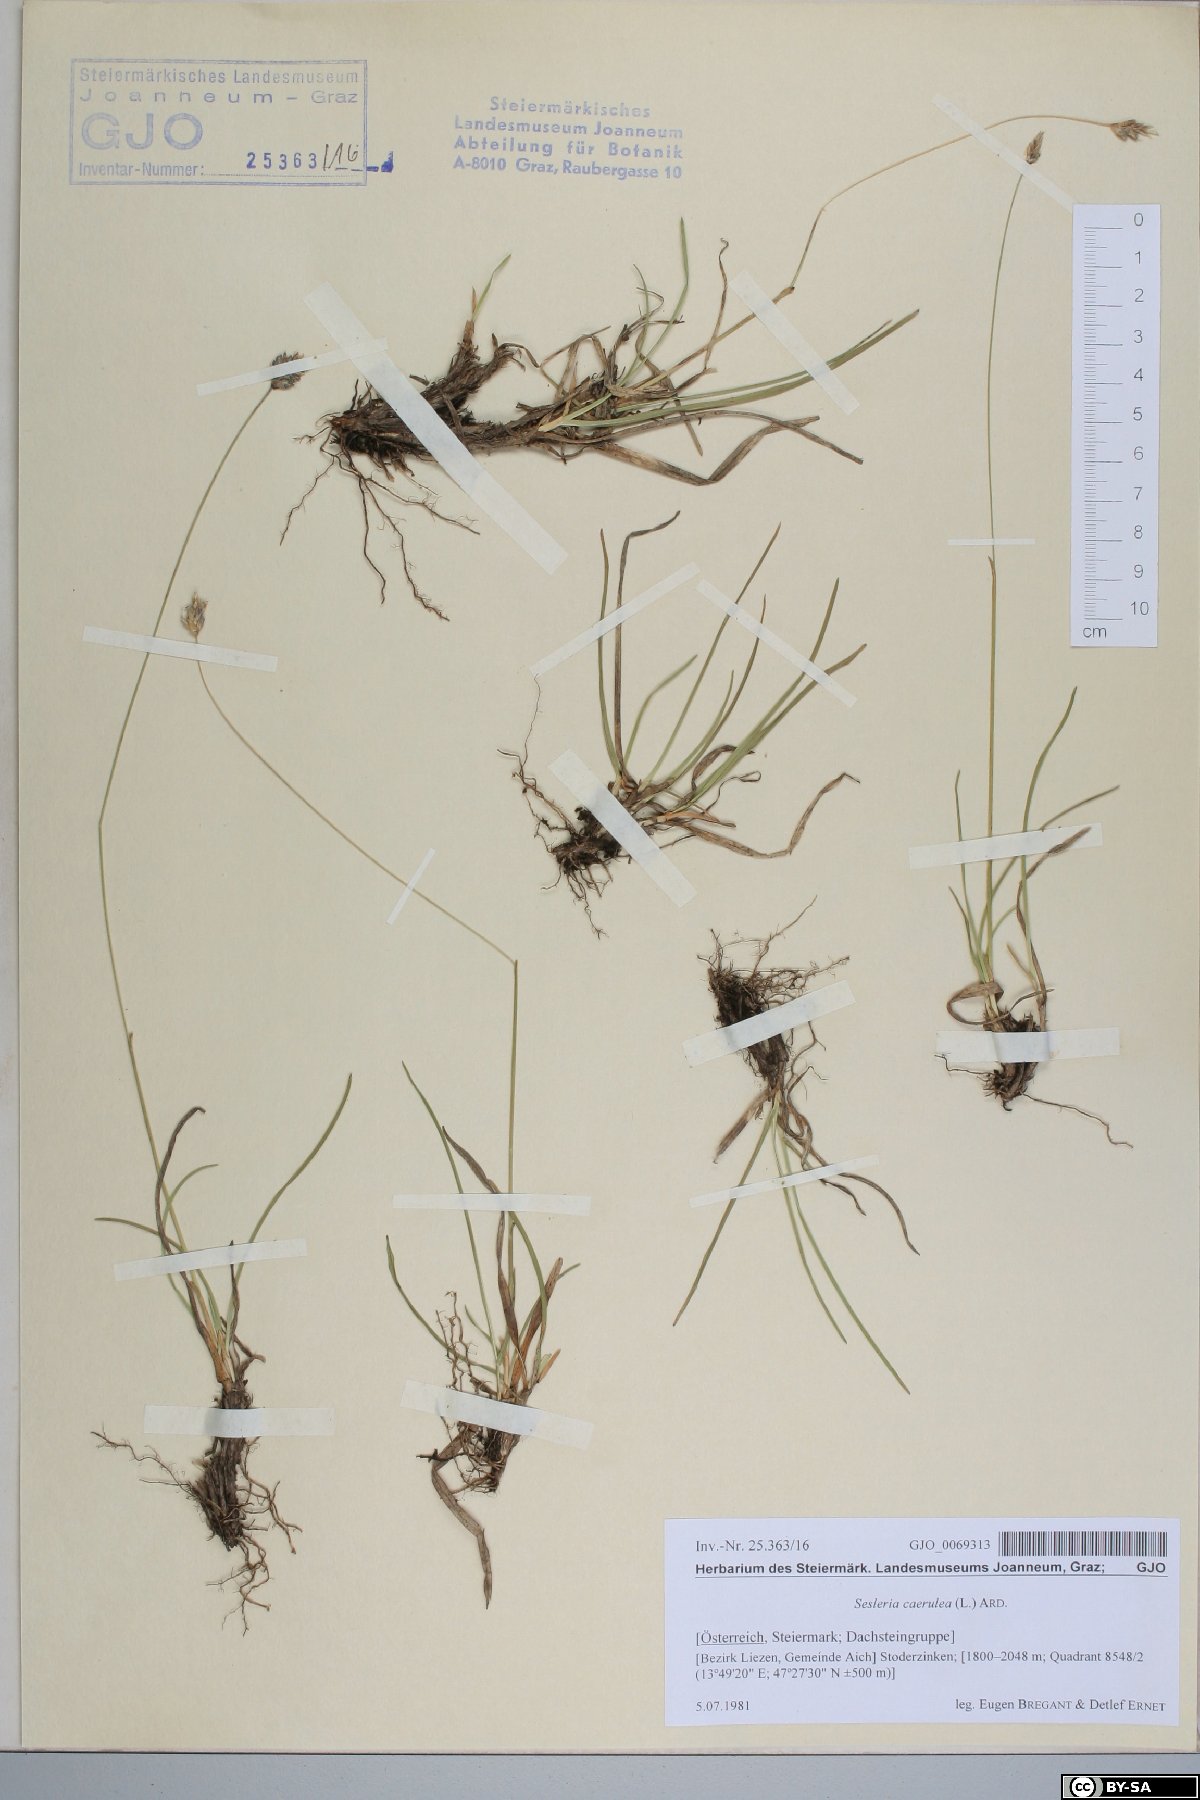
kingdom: Plantae
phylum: Tracheophyta
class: Liliopsida
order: Poales
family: Poaceae
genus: Sesleria
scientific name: Sesleria caerulea
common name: Blue moor-grass
